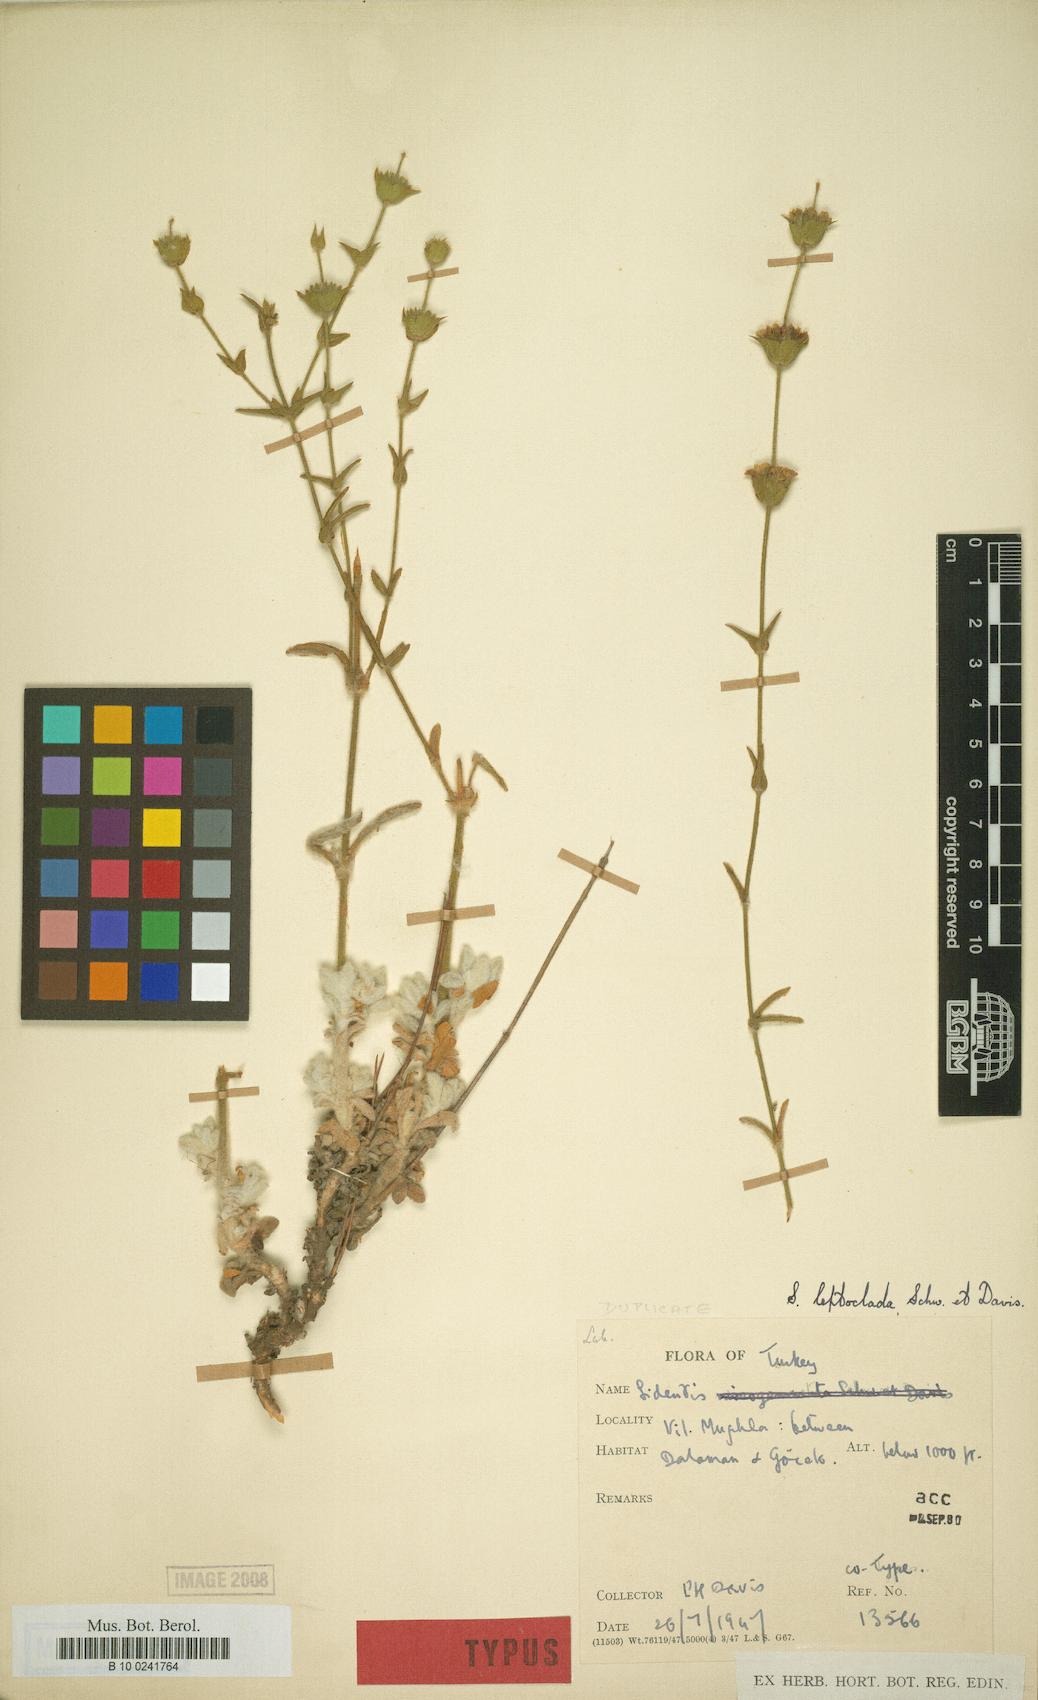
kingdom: Plantae
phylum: Tracheophyta
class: Magnoliopsida
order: Lamiales
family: Lamiaceae
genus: Sideritis
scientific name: Sideritis leptoclada
